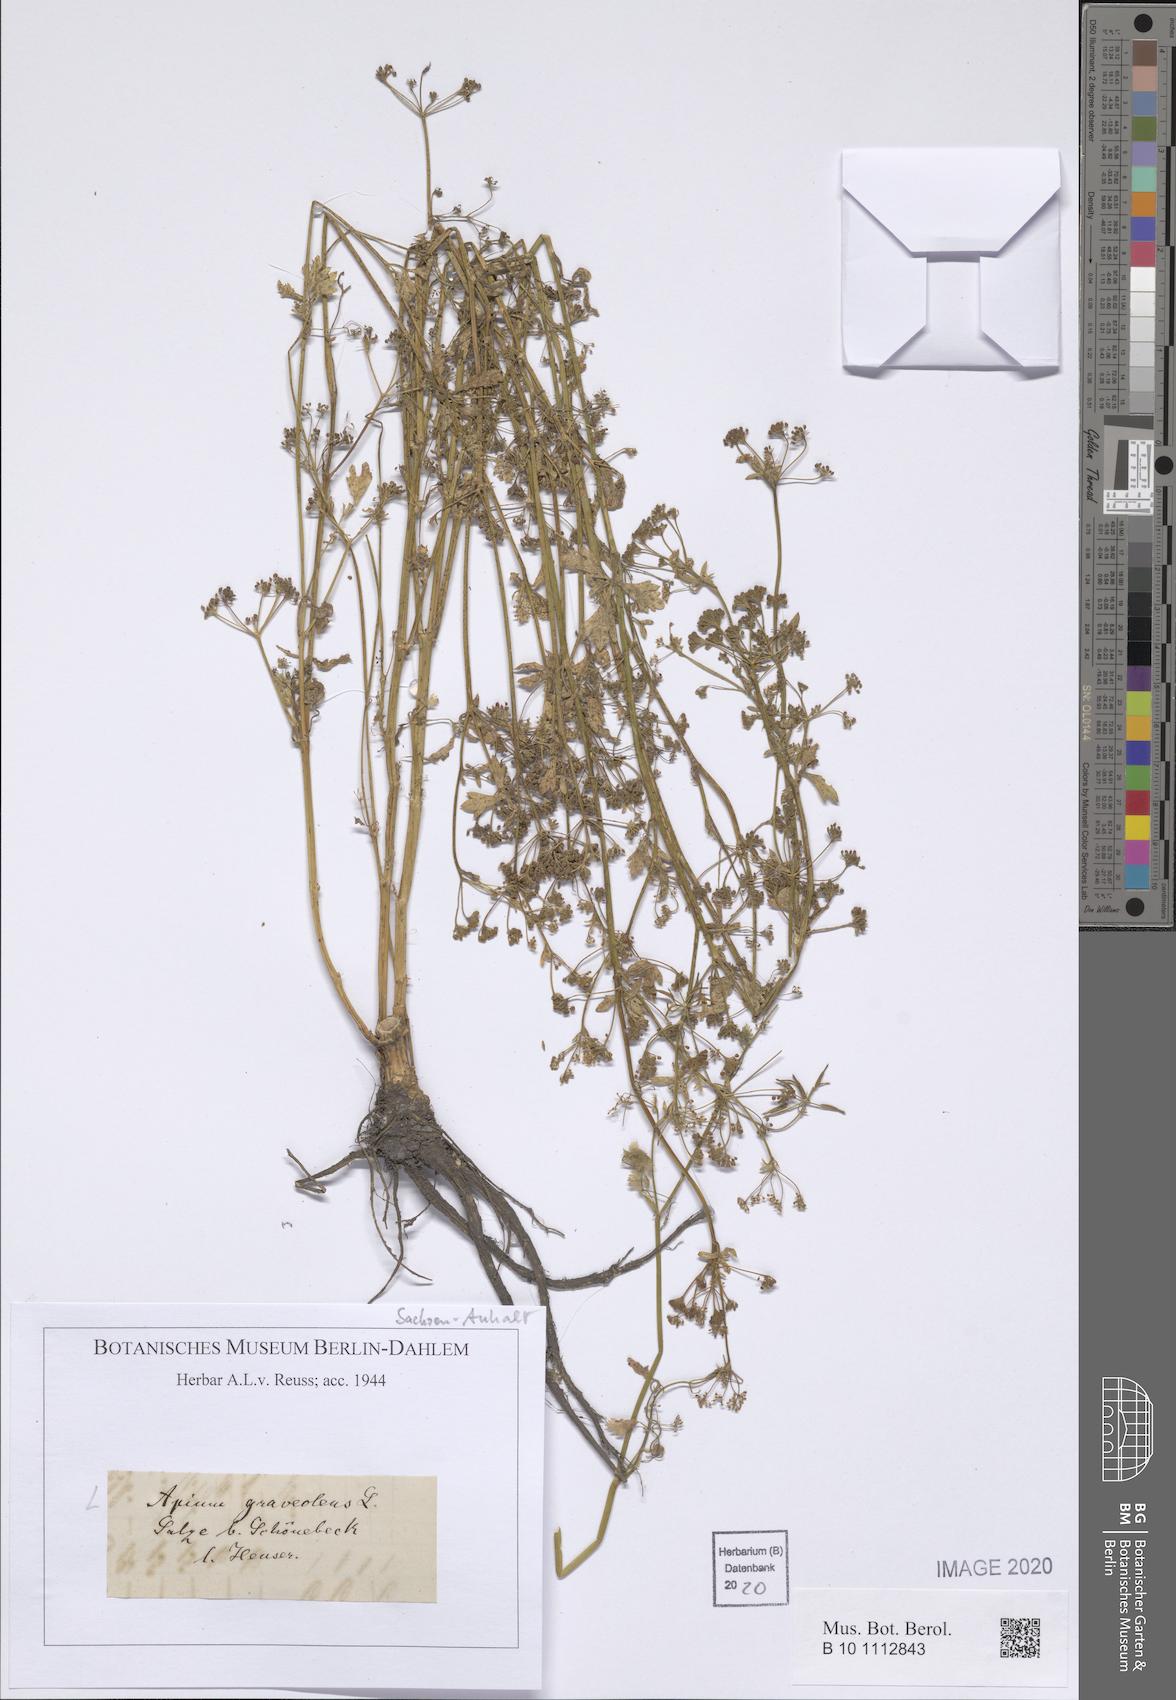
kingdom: Plantae
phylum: Tracheophyta
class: Magnoliopsida
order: Apiales
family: Apiaceae
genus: Apium
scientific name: Apium graveolens
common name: Wild celery
